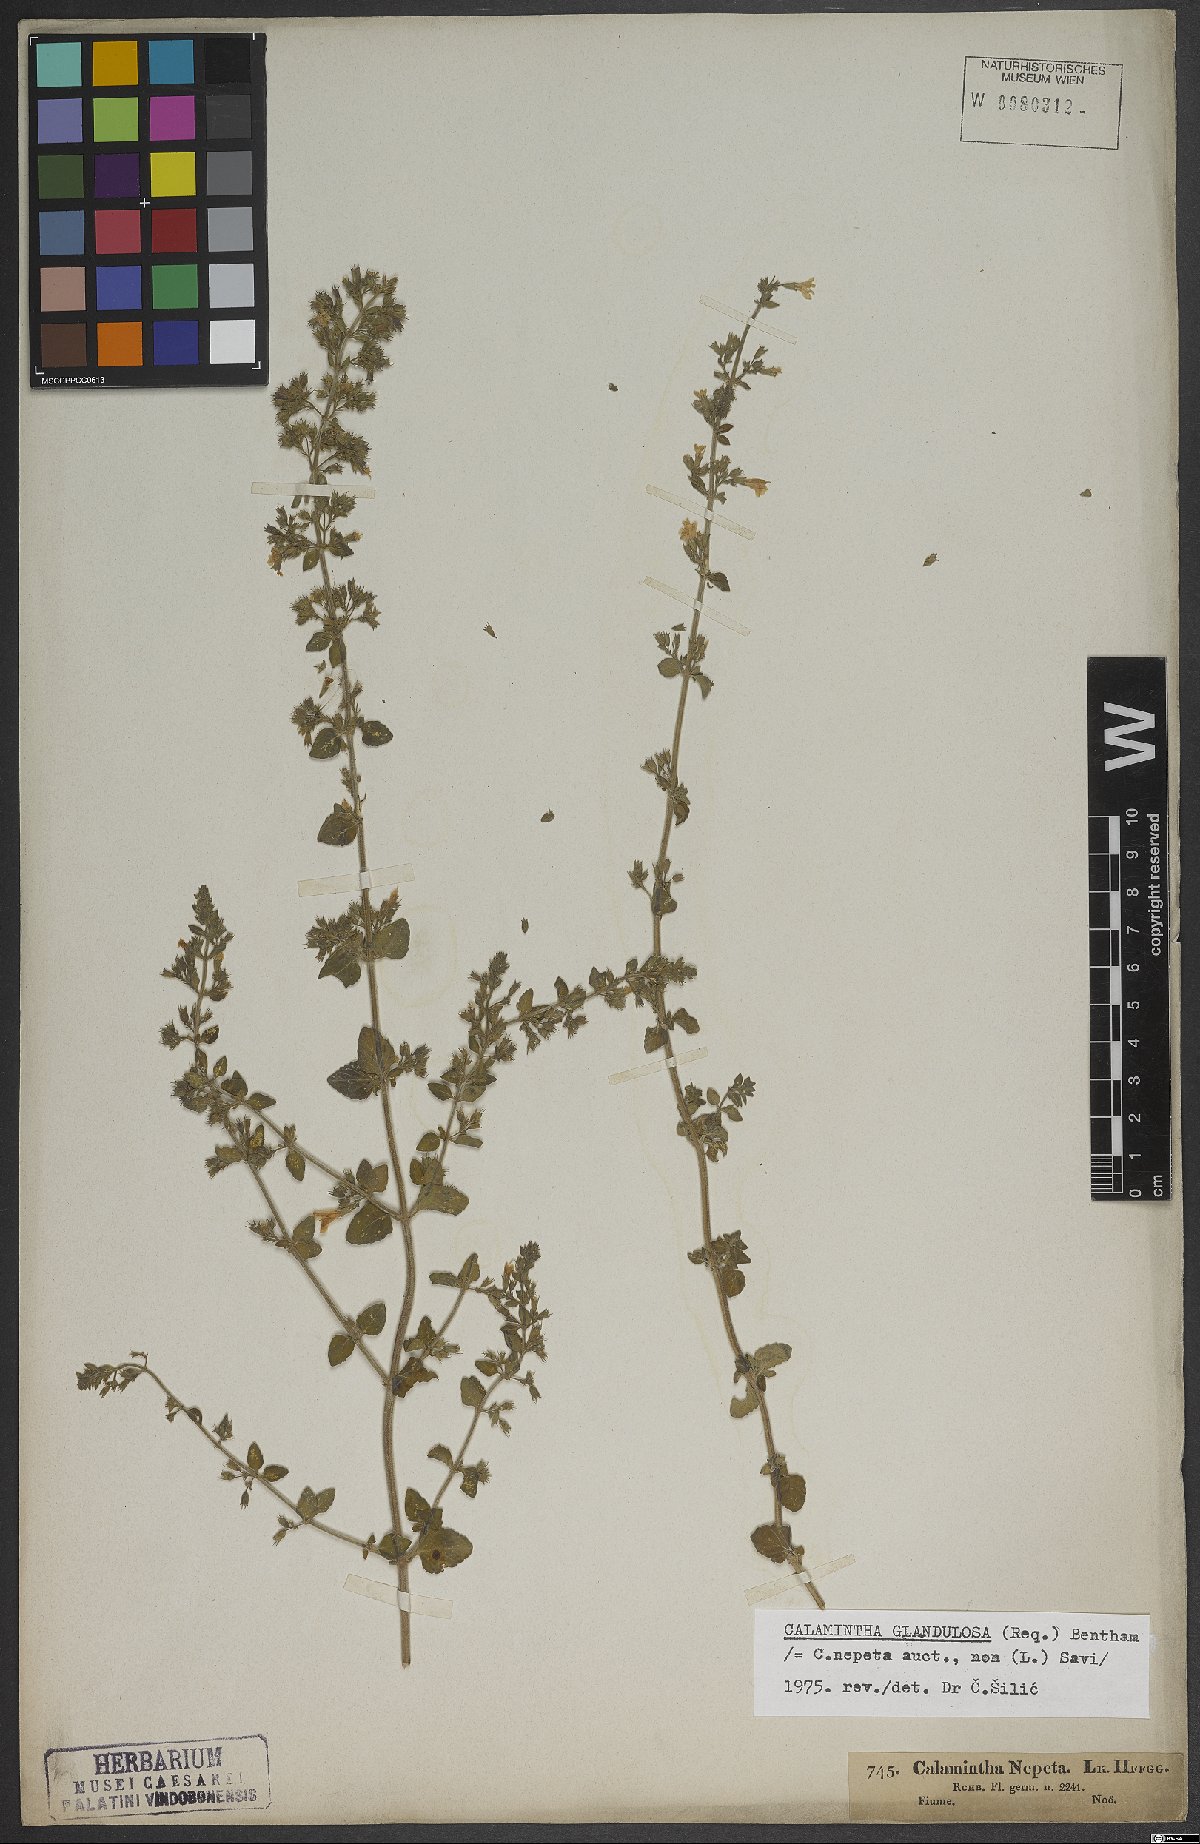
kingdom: Plantae
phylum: Tracheophyta
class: Magnoliopsida
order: Lamiales
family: Lamiaceae
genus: Clinopodium
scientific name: Clinopodium nepeta
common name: Lesser calamint
